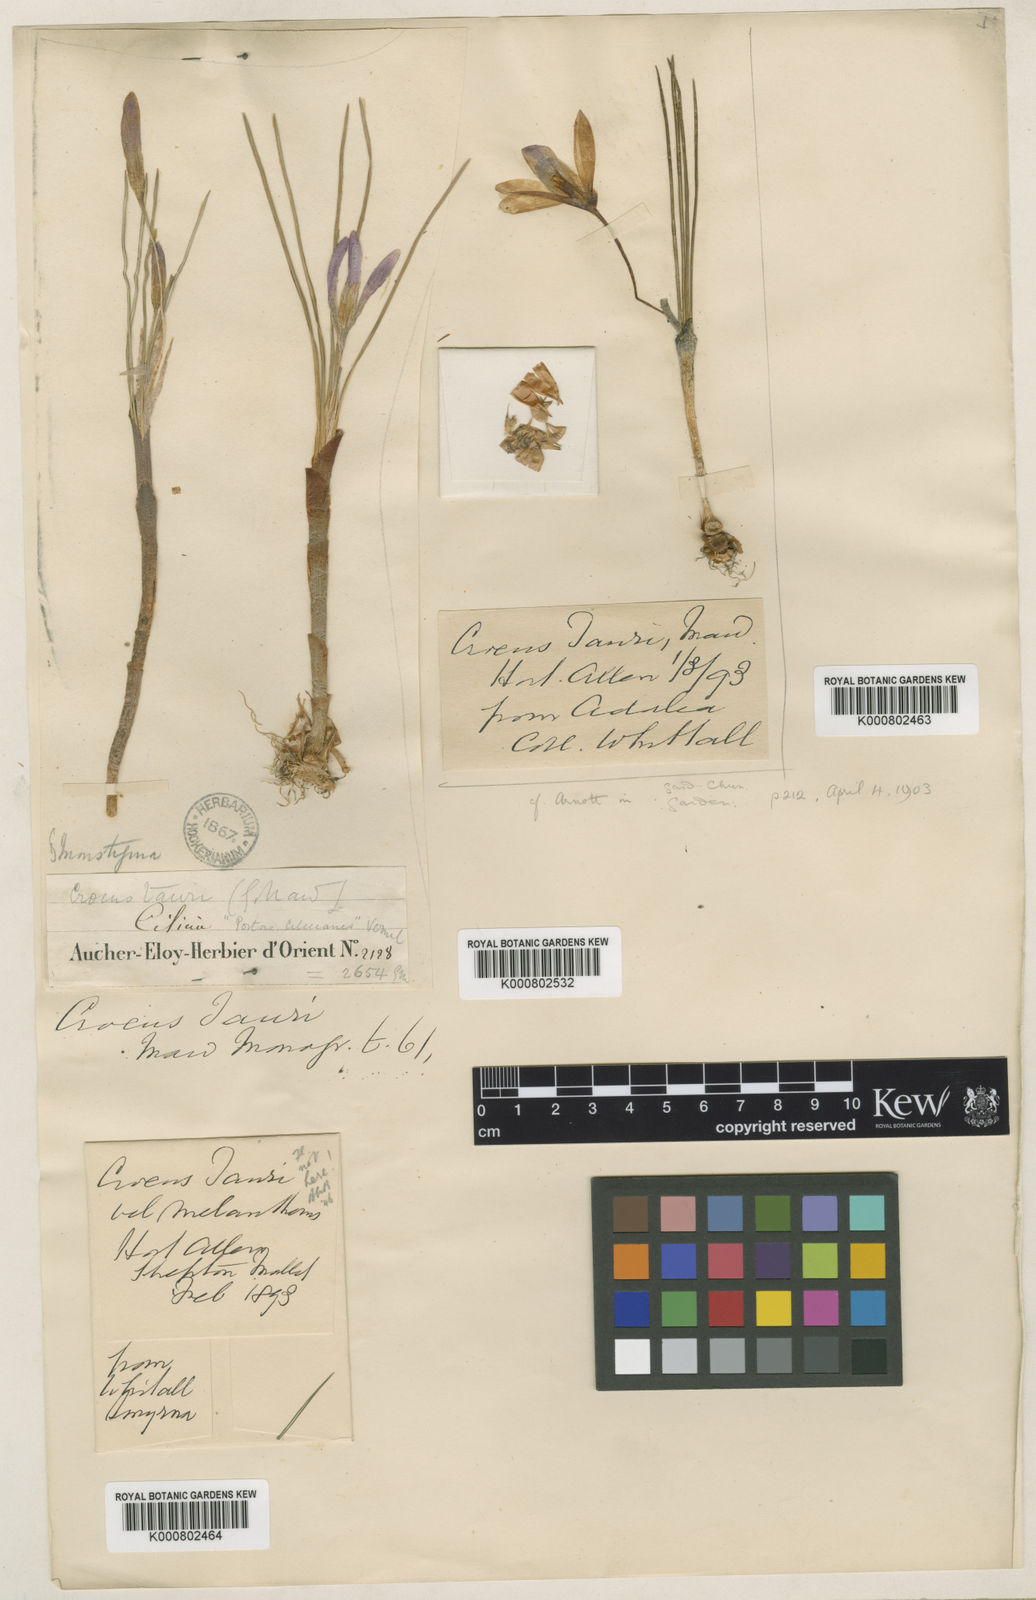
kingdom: Plantae
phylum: Tracheophyta
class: Liliopsida
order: Asparagales
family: Iridaceae
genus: Crocus
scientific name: Crocus tauri
